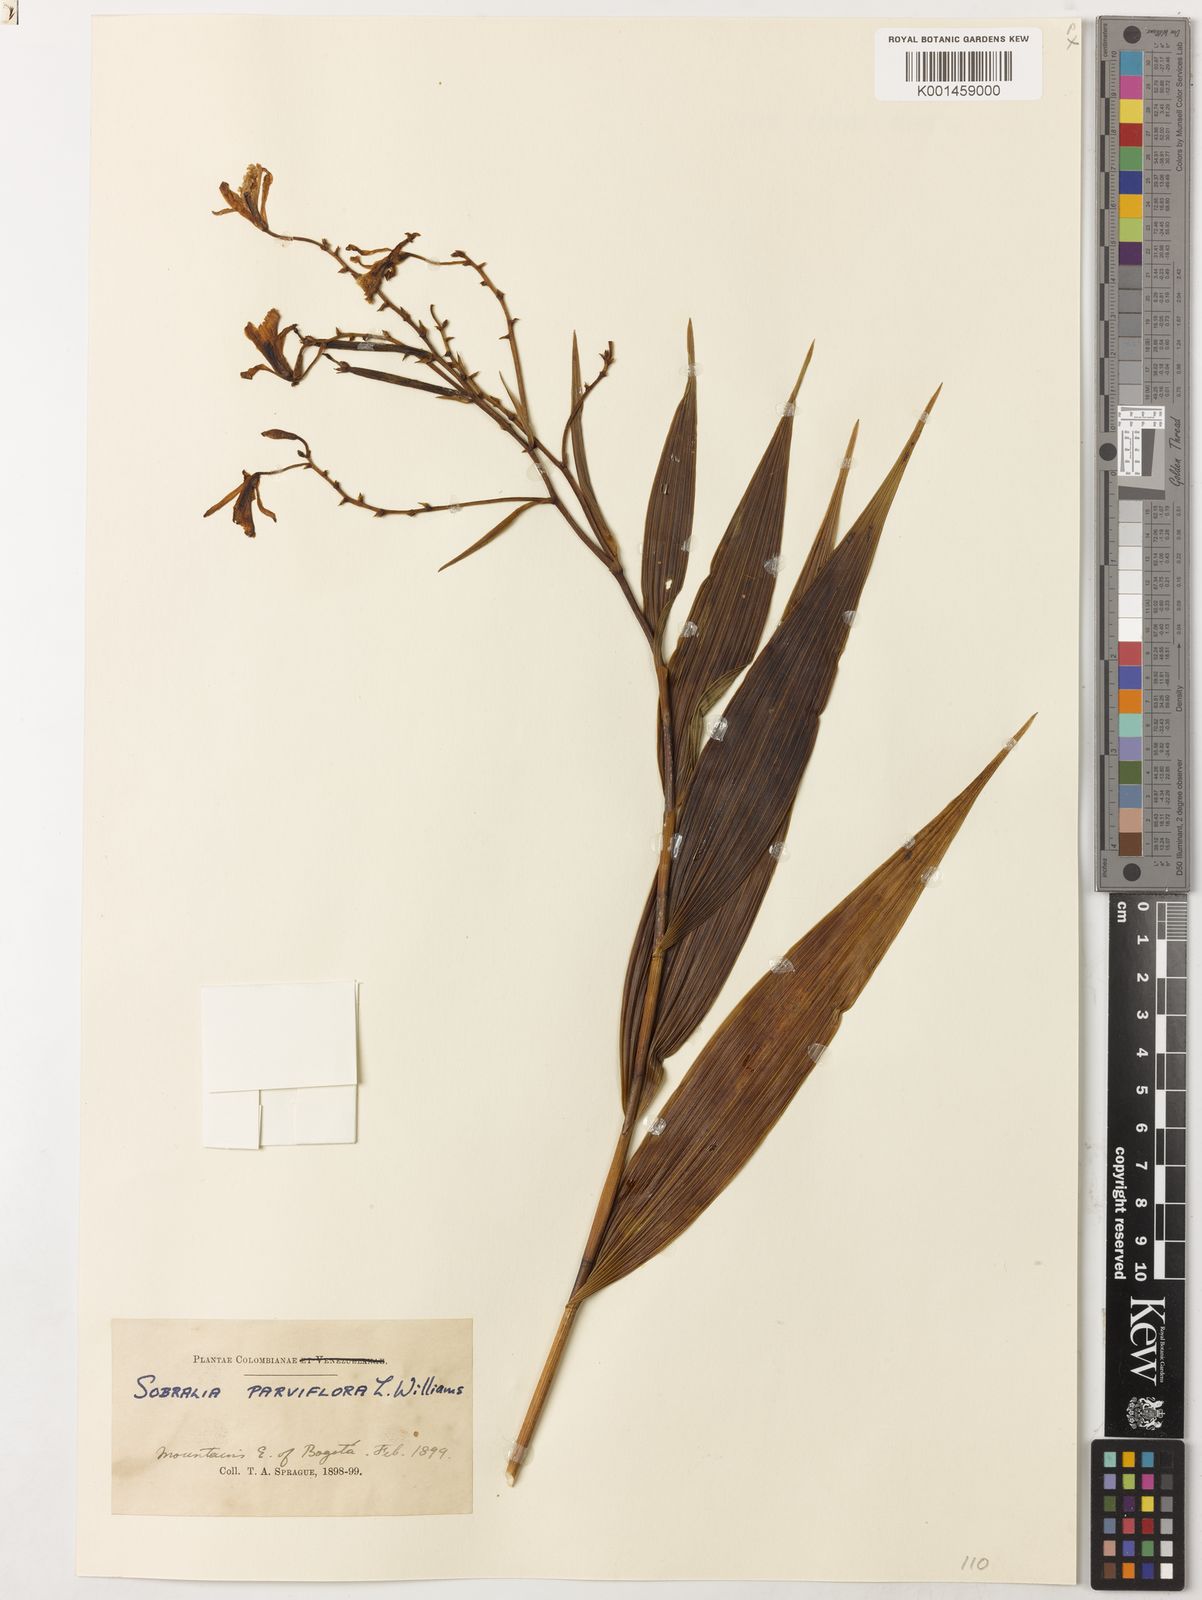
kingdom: Plantae
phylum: Tracheophyta
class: Liliopsida
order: Asparagales
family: Orchidaceae
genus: Sobralia
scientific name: Sobralia sobralioides
